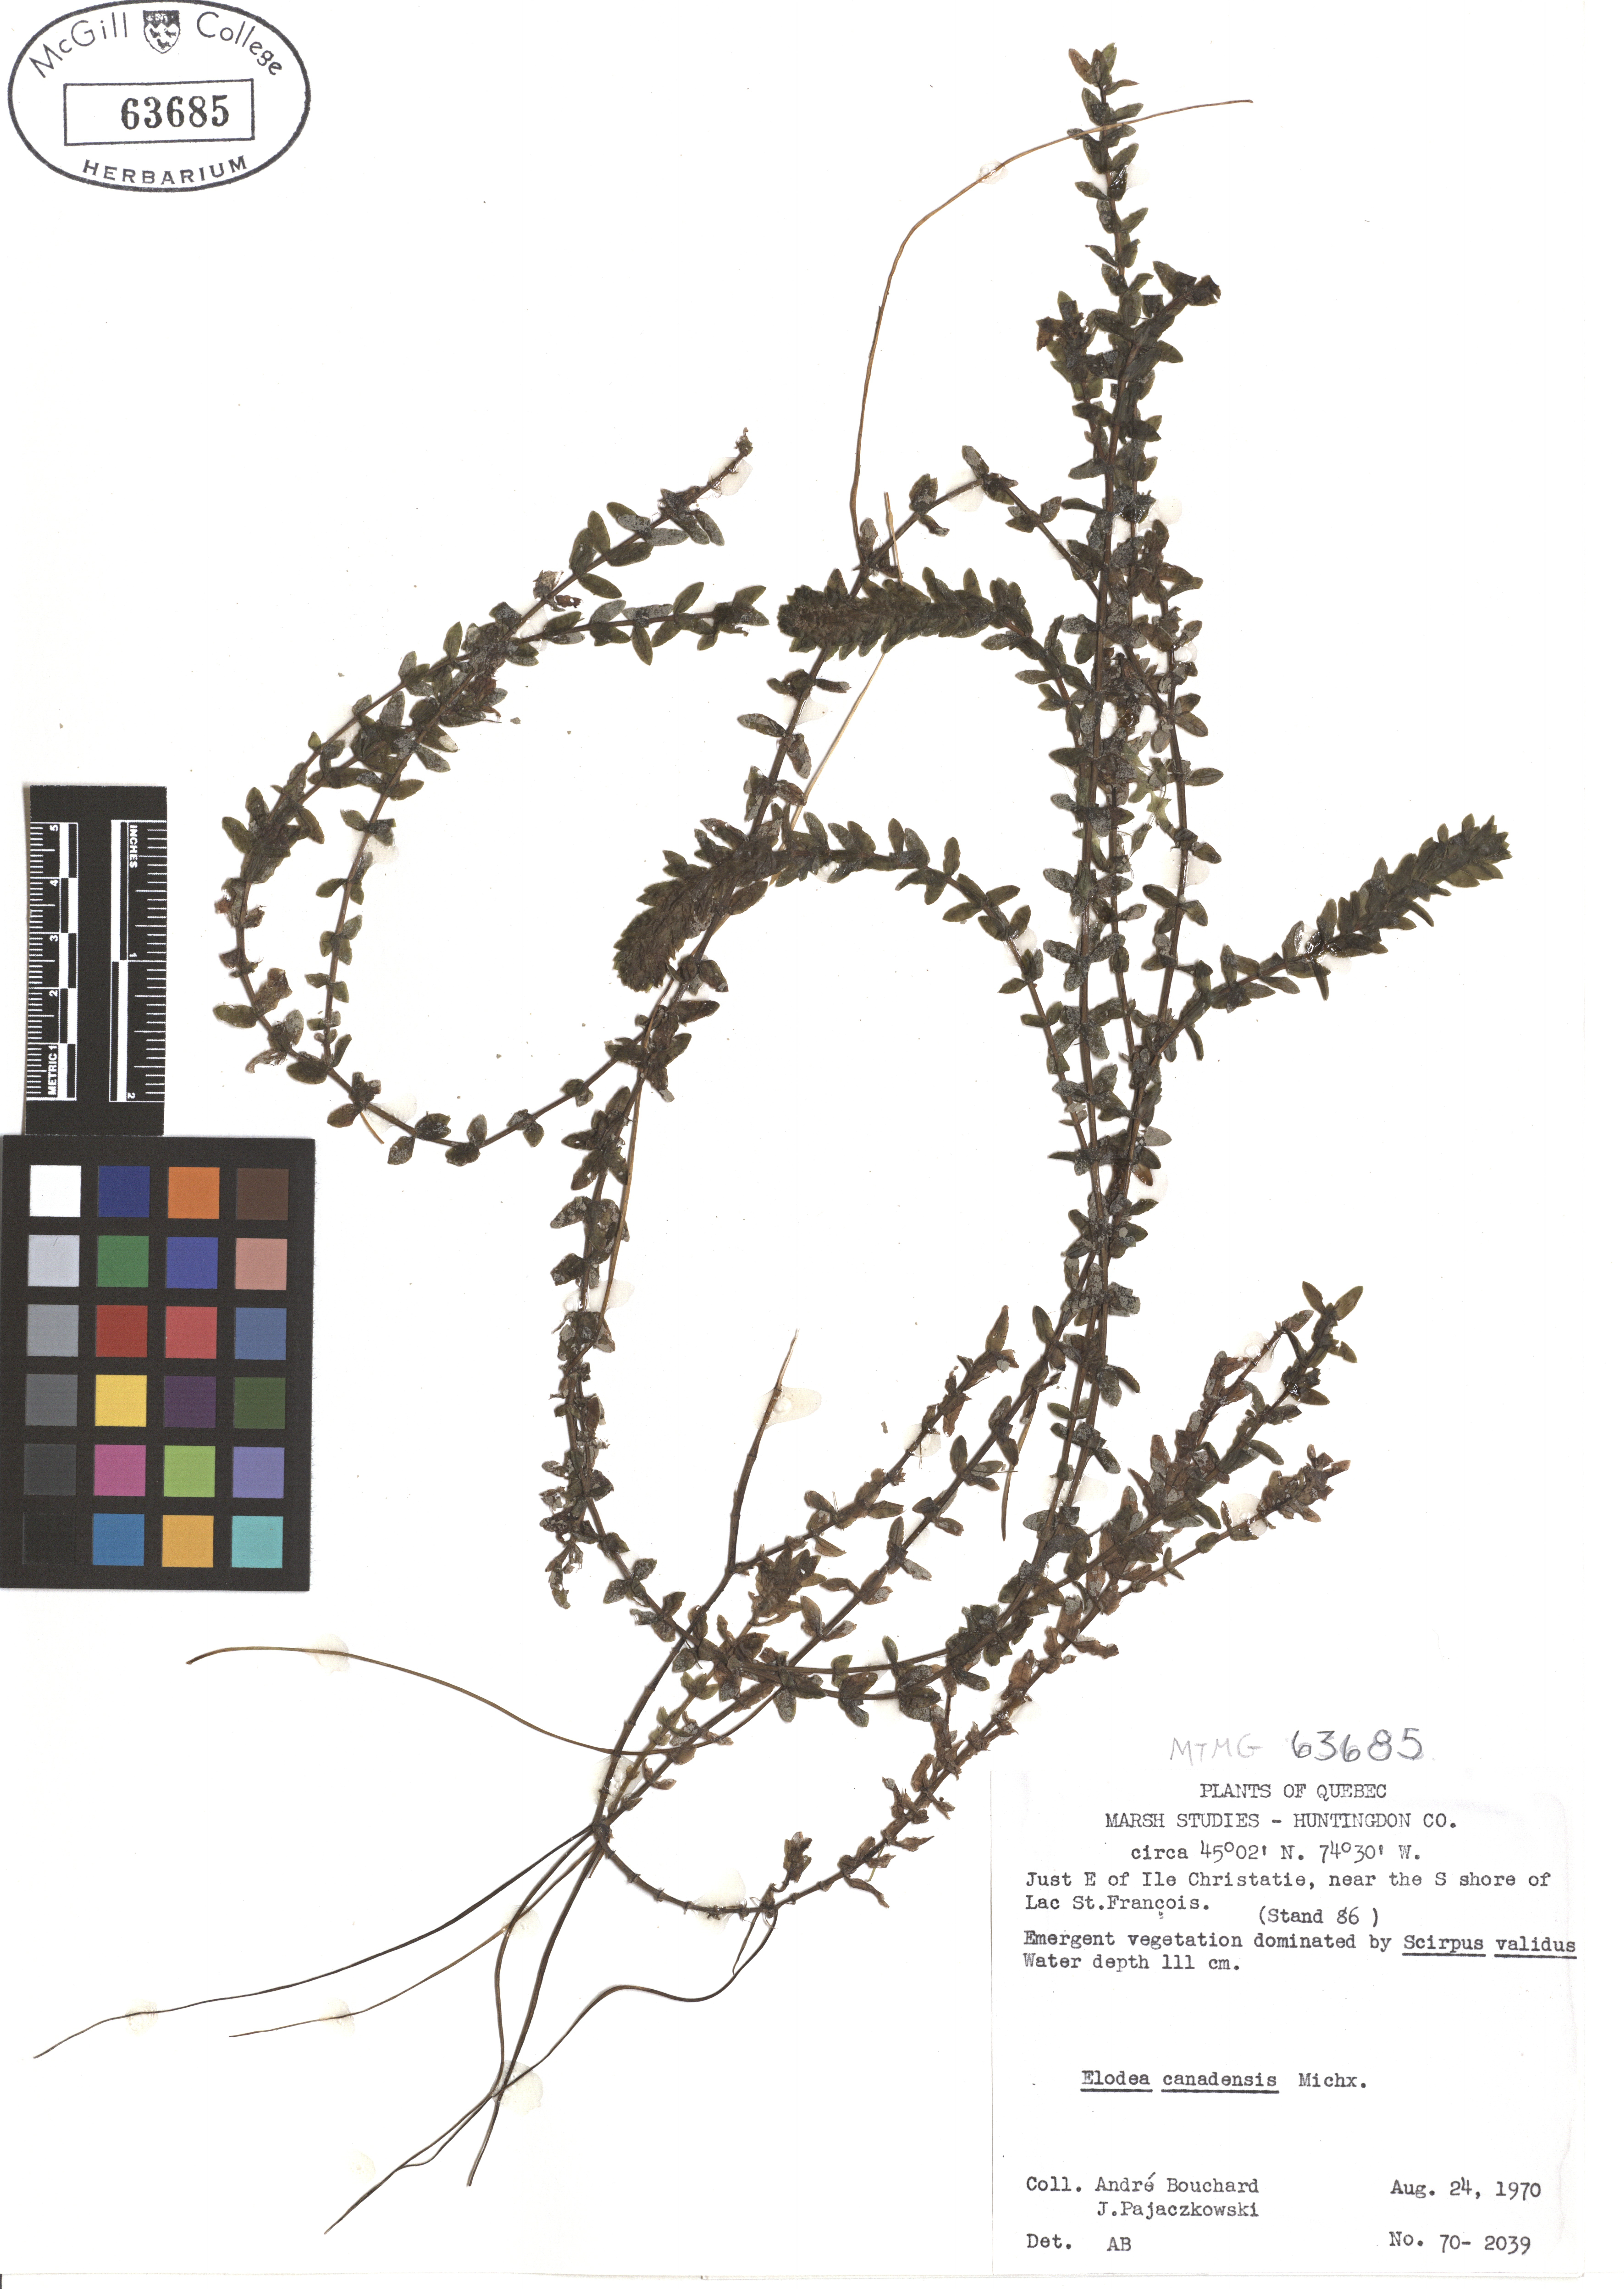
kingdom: Plantae
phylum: Tracheophyta
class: Liliopsida
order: Alismatales
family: Hydrocharitaceae
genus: Elodea
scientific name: Elodea canadensis
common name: Canadian waterweed
